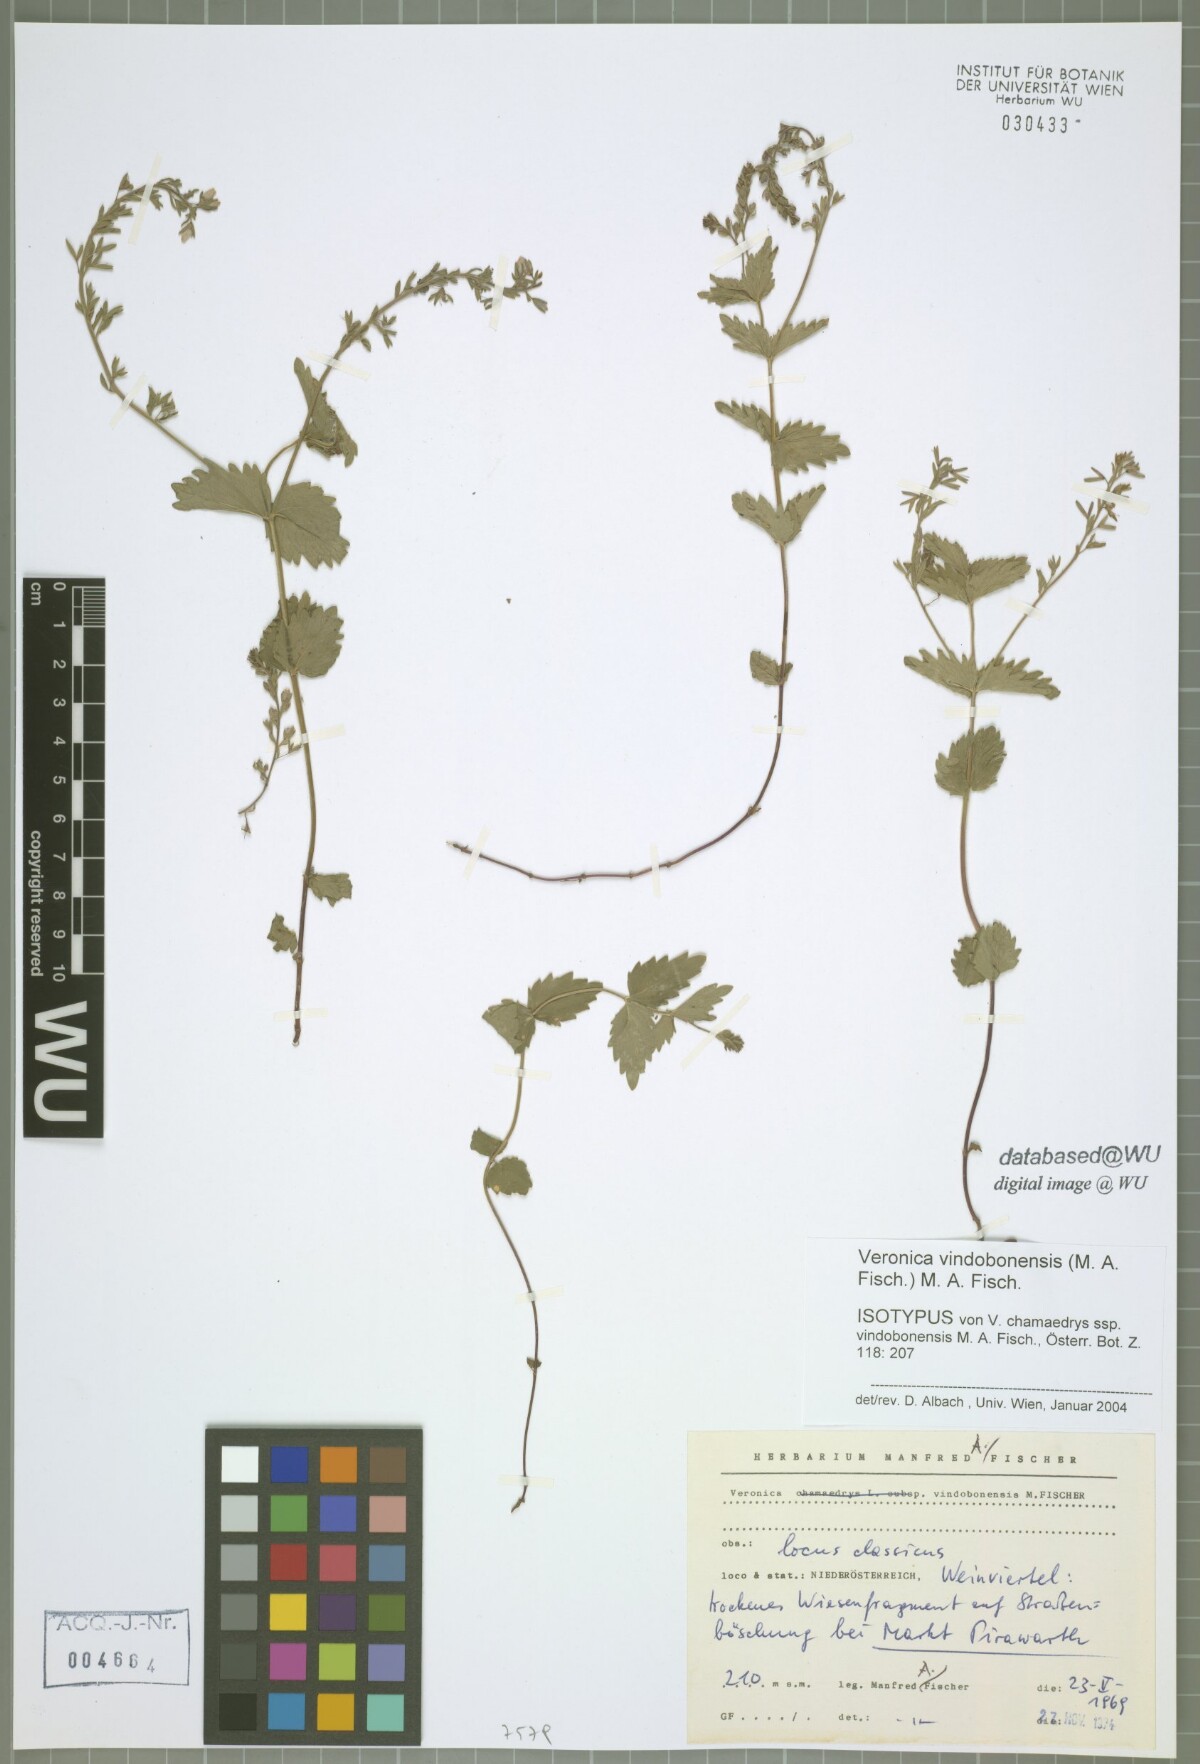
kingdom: Plantae
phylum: Tracheophyta
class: Magnoliopsida
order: Lamiales
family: Plantaginaceae
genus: Veronica
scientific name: Veronica vindobonensis
